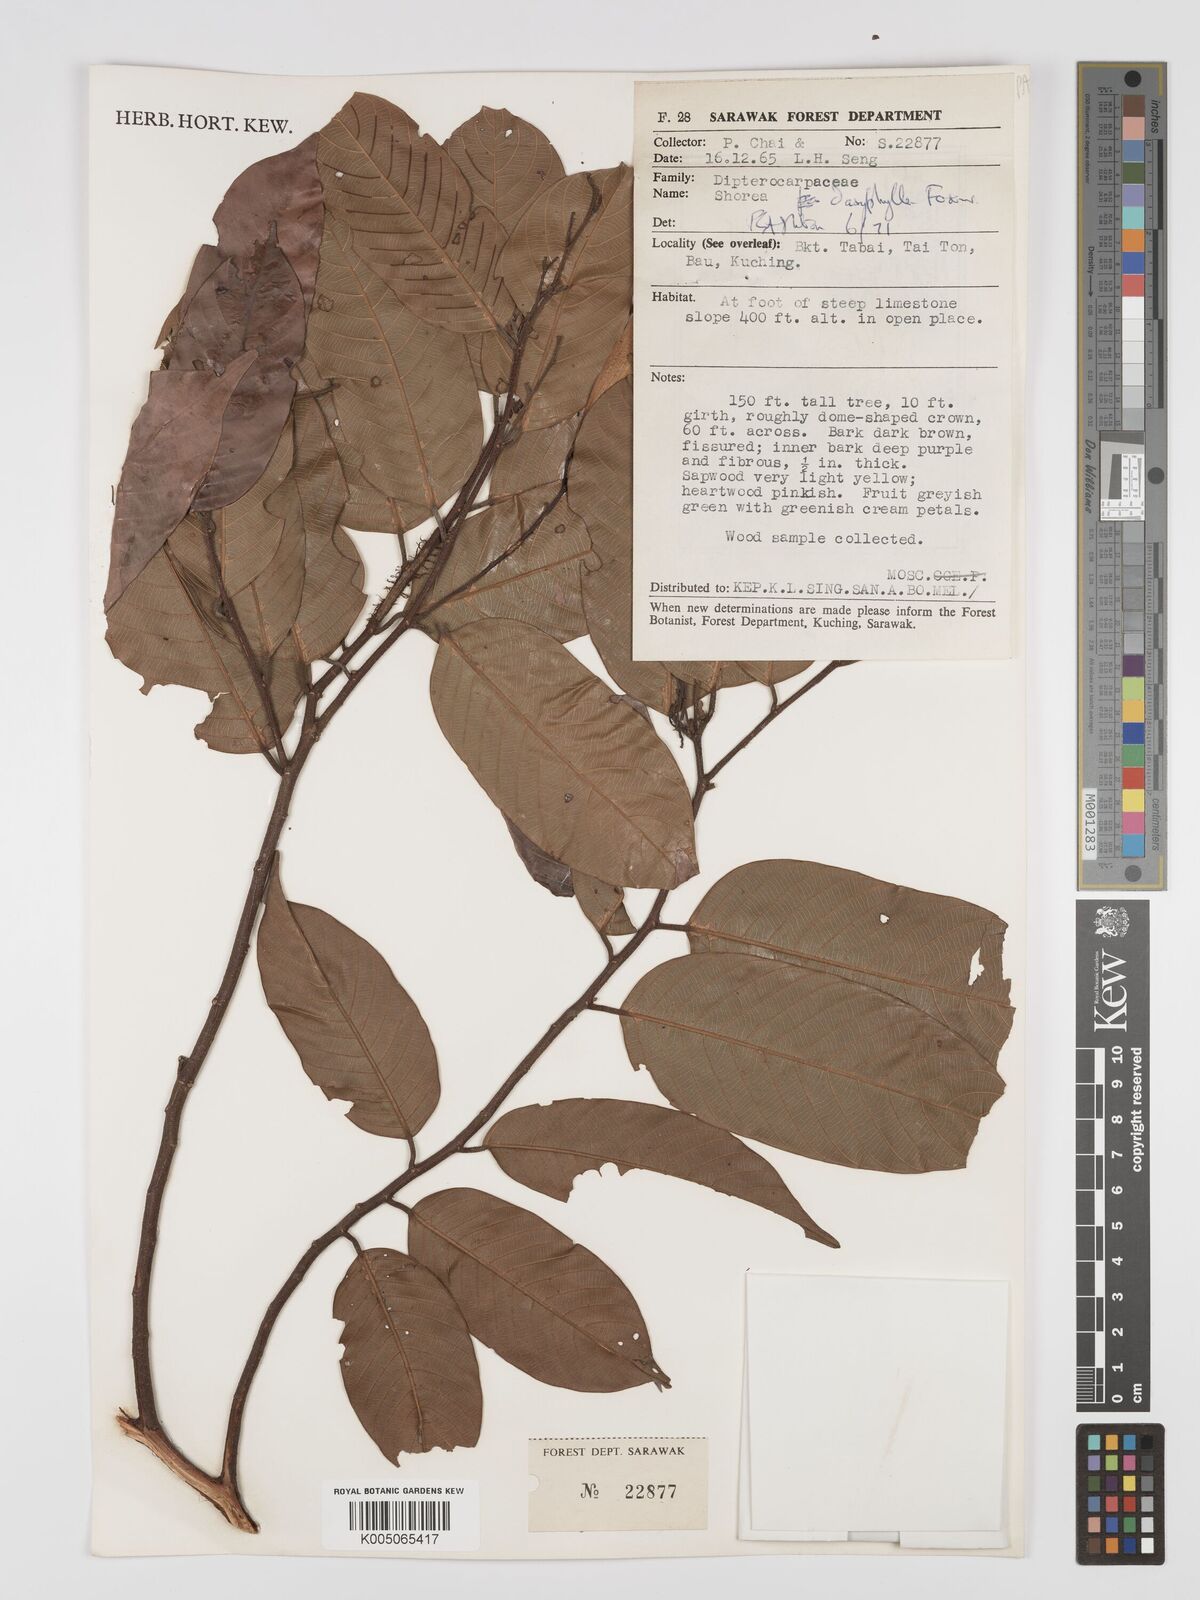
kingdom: Plantae
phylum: Tracheophyta
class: Magnoliopsida
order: Malvales
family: Dipterocarpaceae
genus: Shorea
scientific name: Shorea dasyphylla
